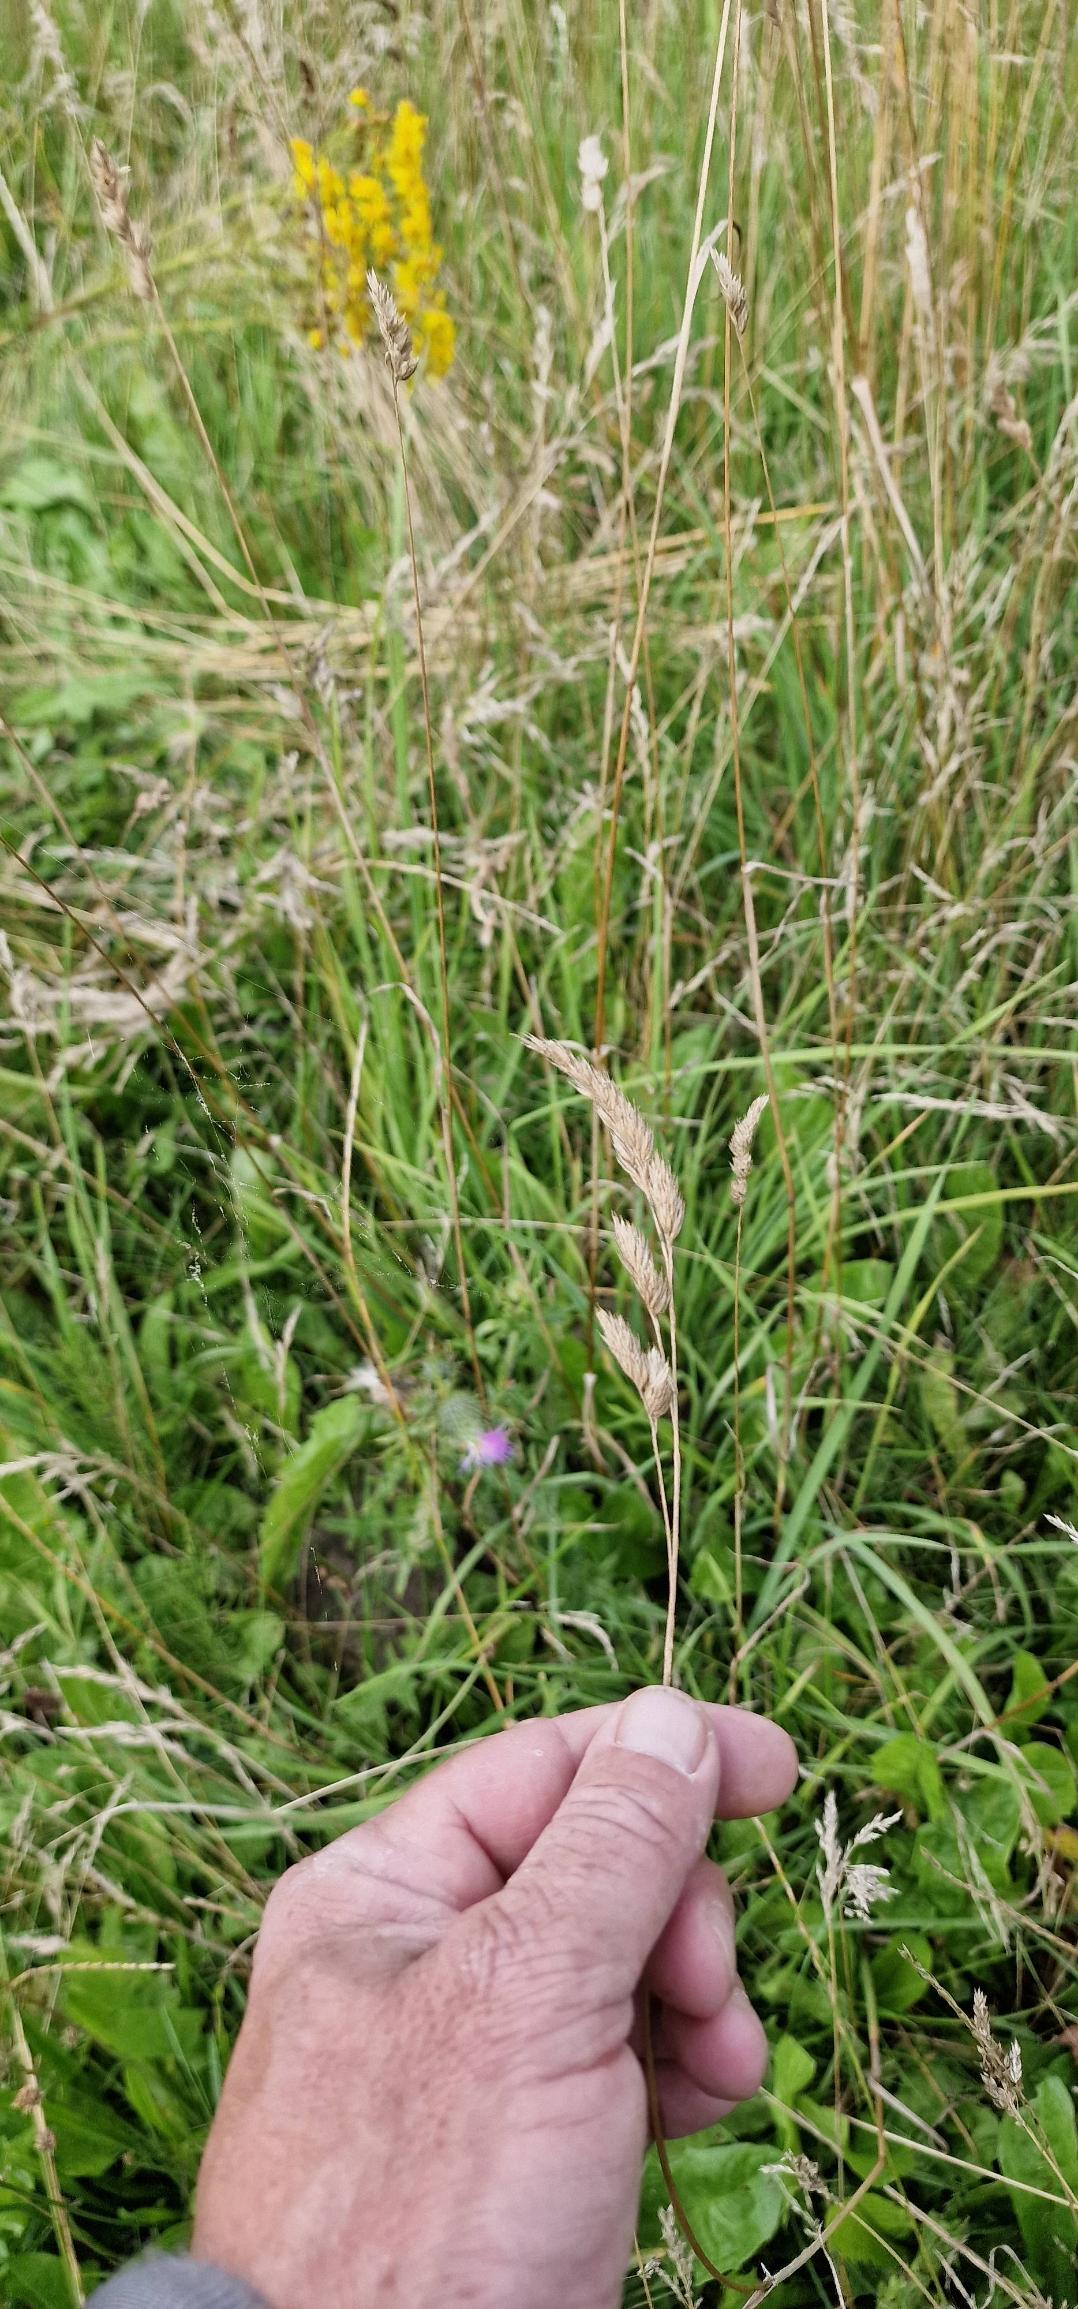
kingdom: Plantae
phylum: Tracheophyta
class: Liliopsida
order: Poales
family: Poaceae
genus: Dactylis
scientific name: Dactylis glomerata
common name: Almindelig hundegræs
